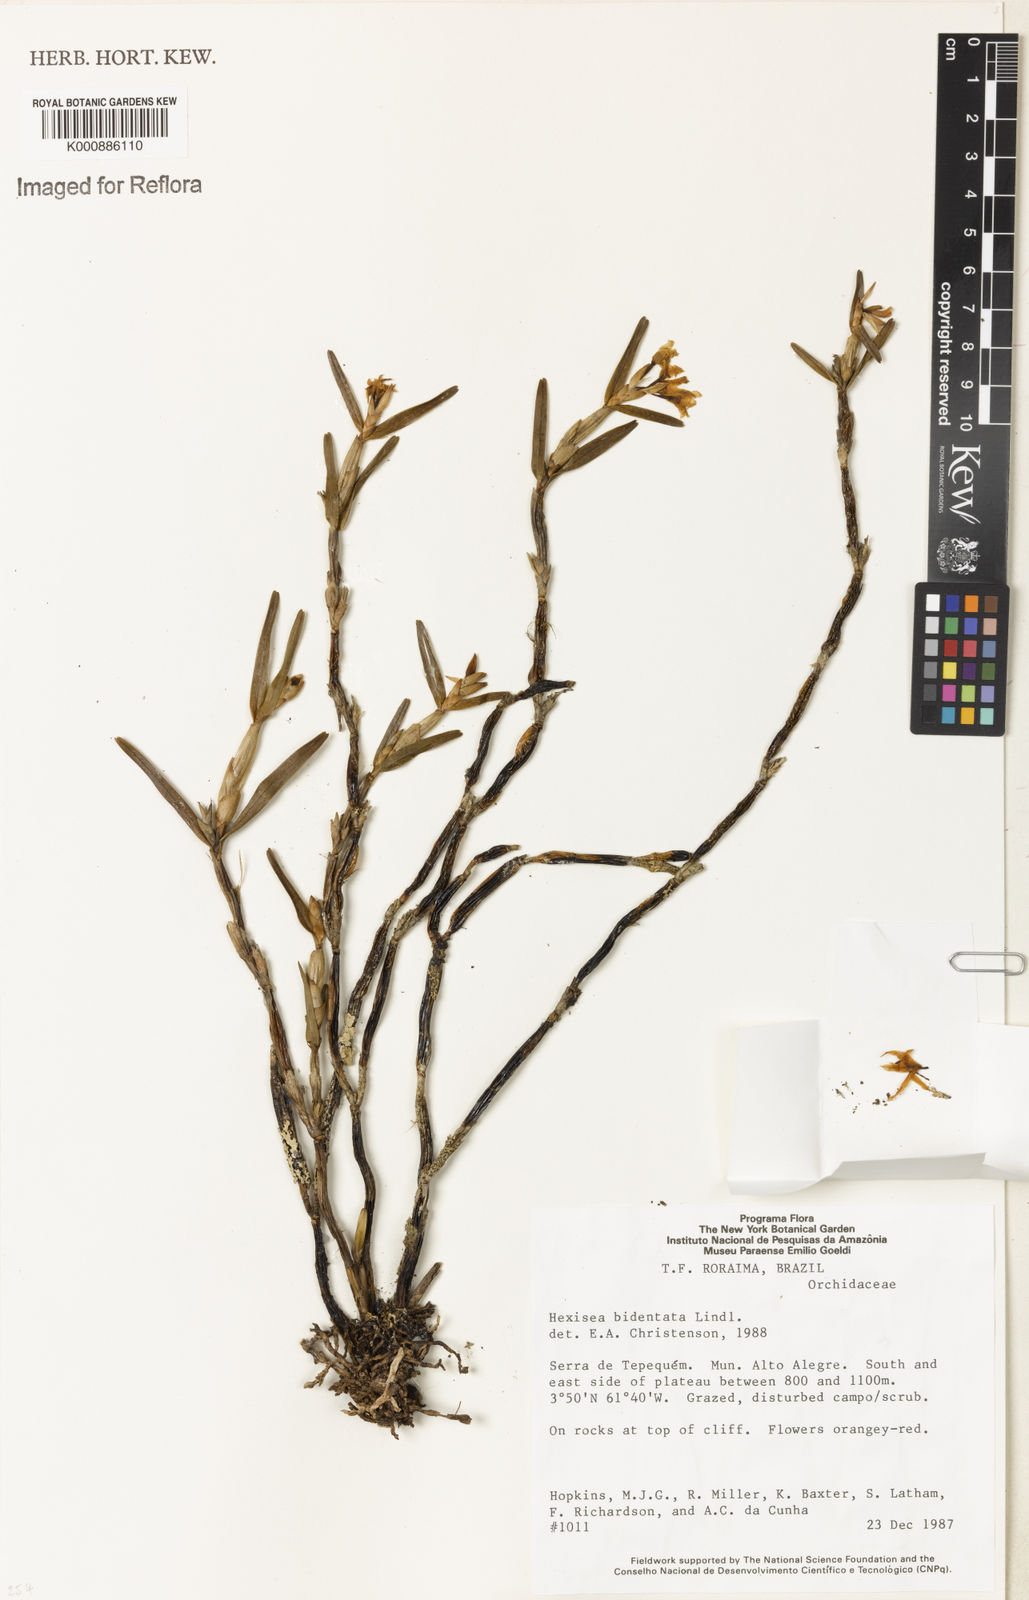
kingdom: Plantae
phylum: Tracheophyta
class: Liliopsida
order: Asparagales
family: Orchidaceae
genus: Scaphyglottis
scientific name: Scaphyglottis bidentata
